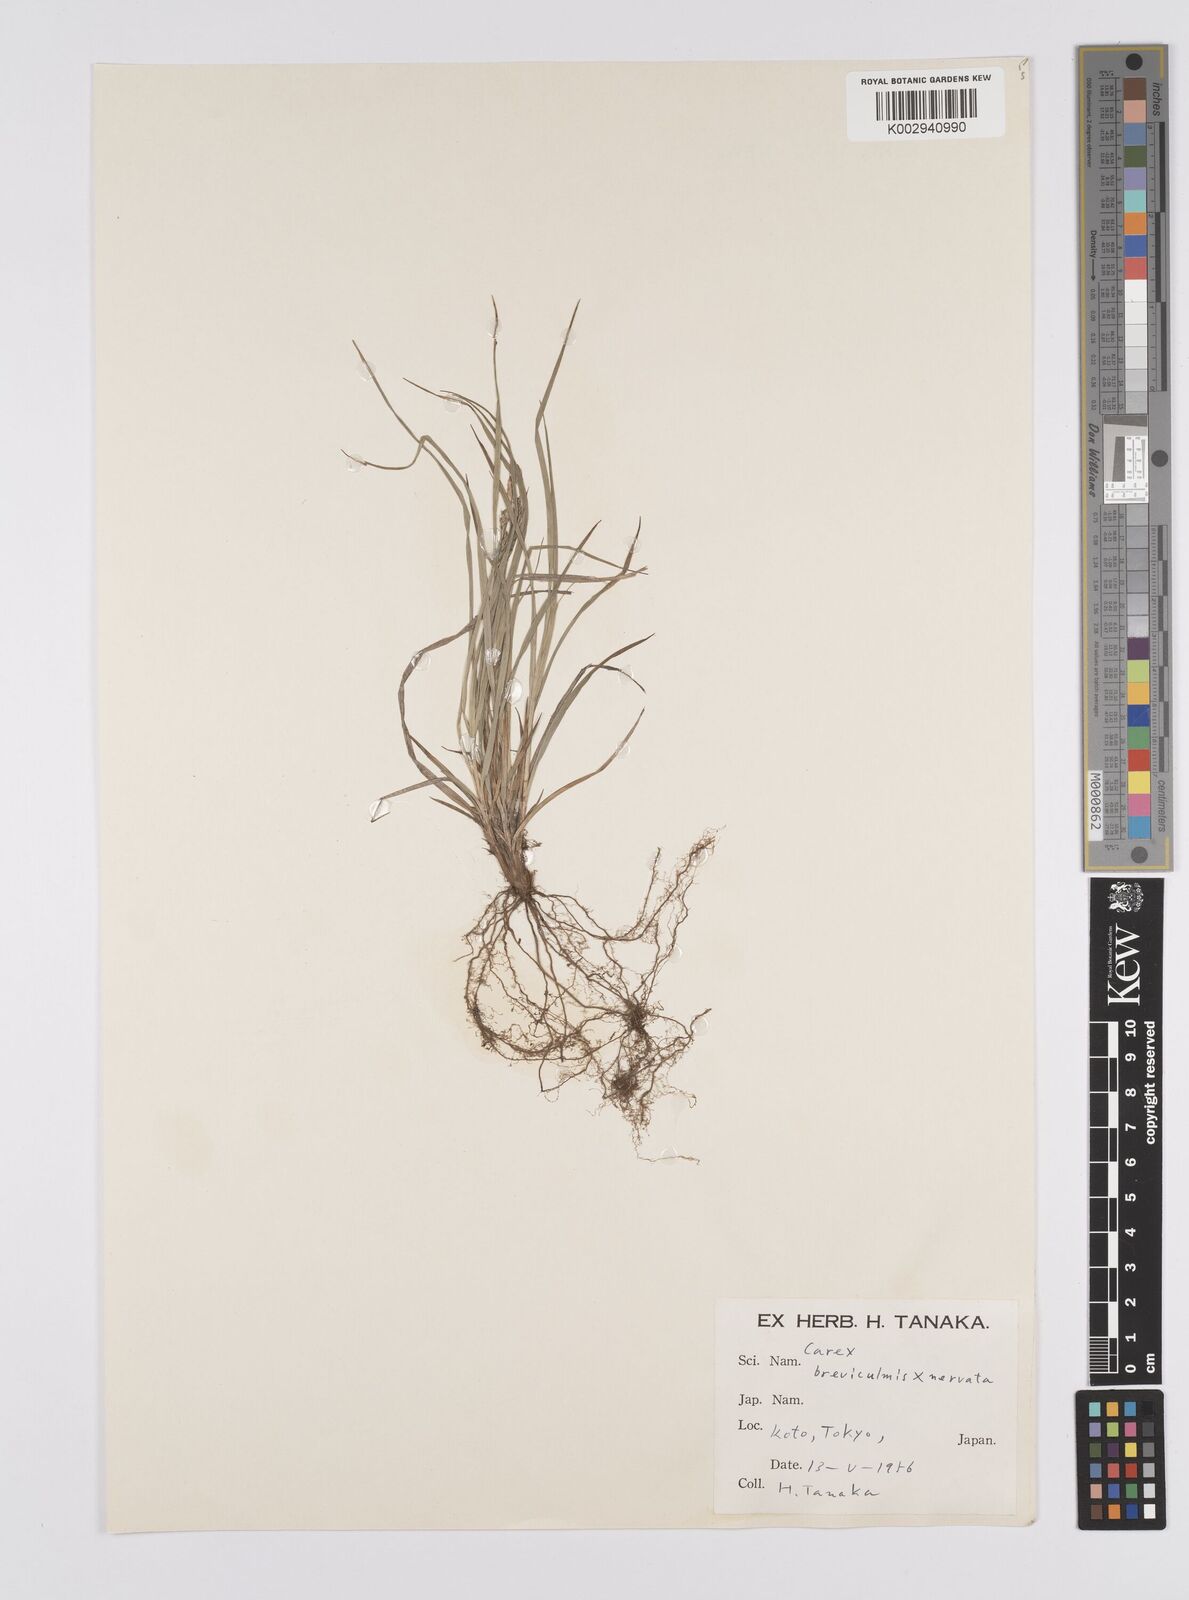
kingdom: Plantae
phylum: Tracheophyta
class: Liliopsida
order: Poales
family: Cyperaceae
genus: Carex
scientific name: Carex breviculmis
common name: Asian shortstem sedge
